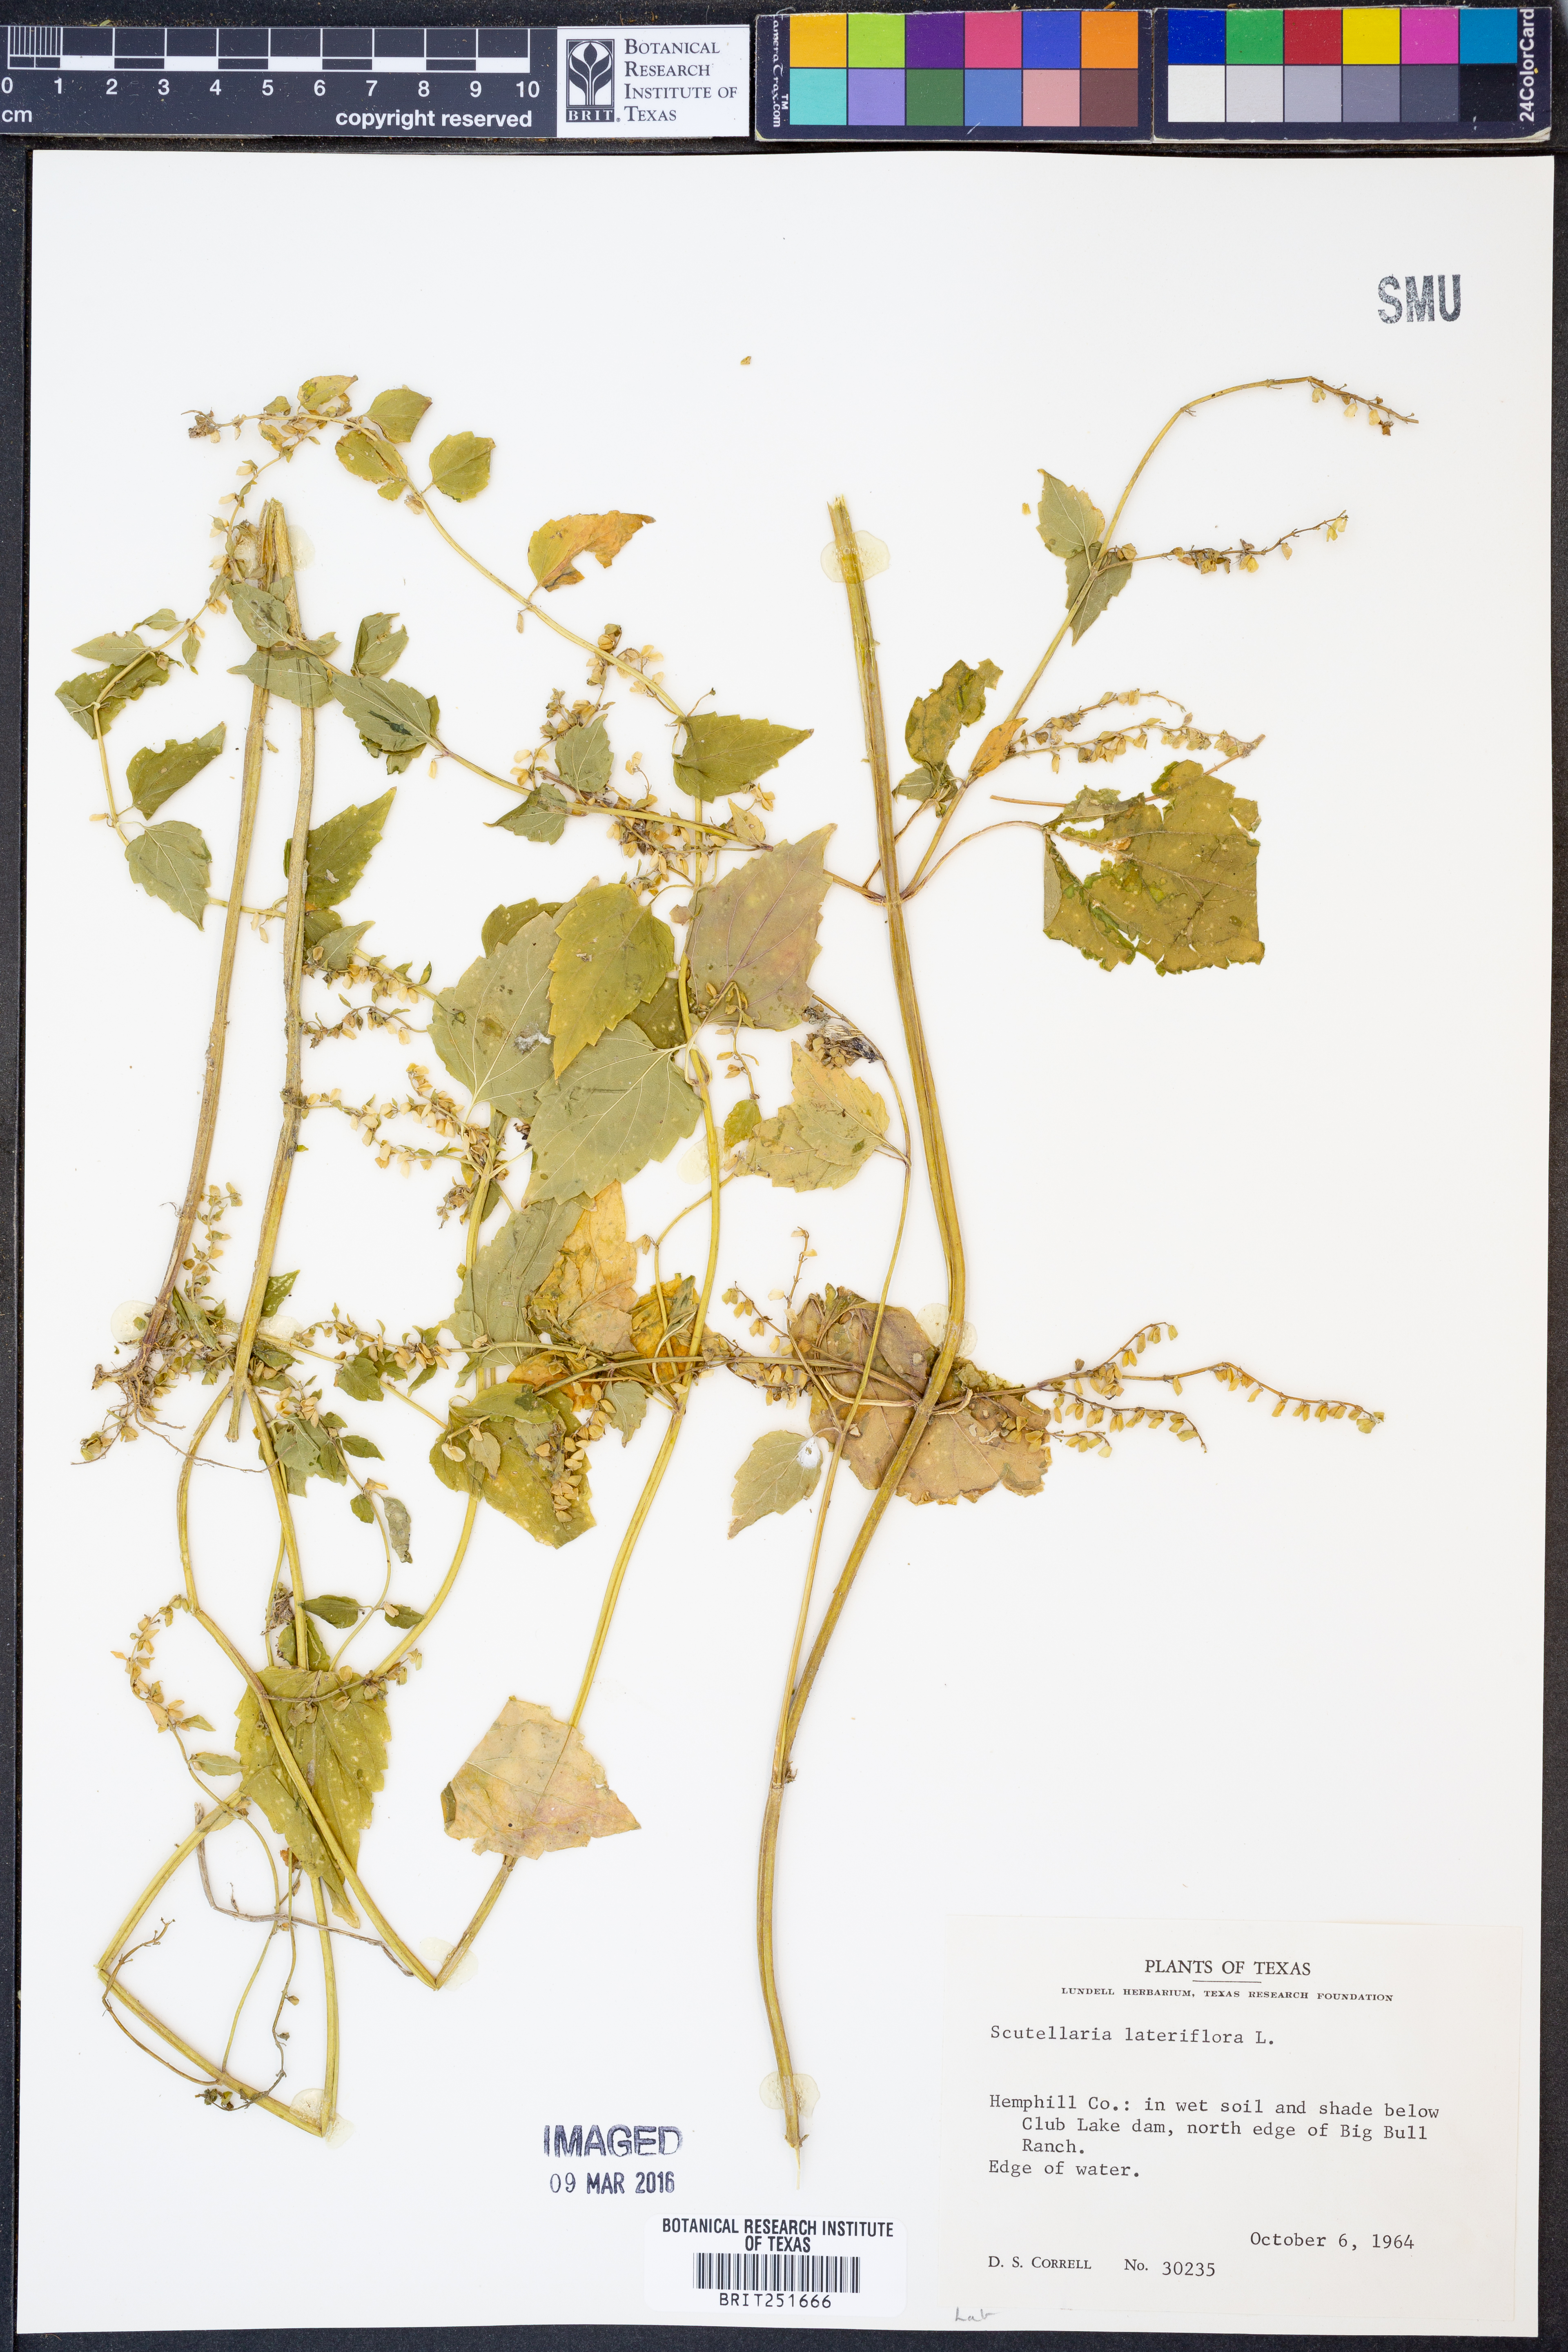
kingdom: Plantae
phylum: Tracheophyta
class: Magnoliopsida
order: Lamiales
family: Lamiaceae
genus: Scutellaria
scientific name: Scutellaria lateriflora
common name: Blue skullcap
